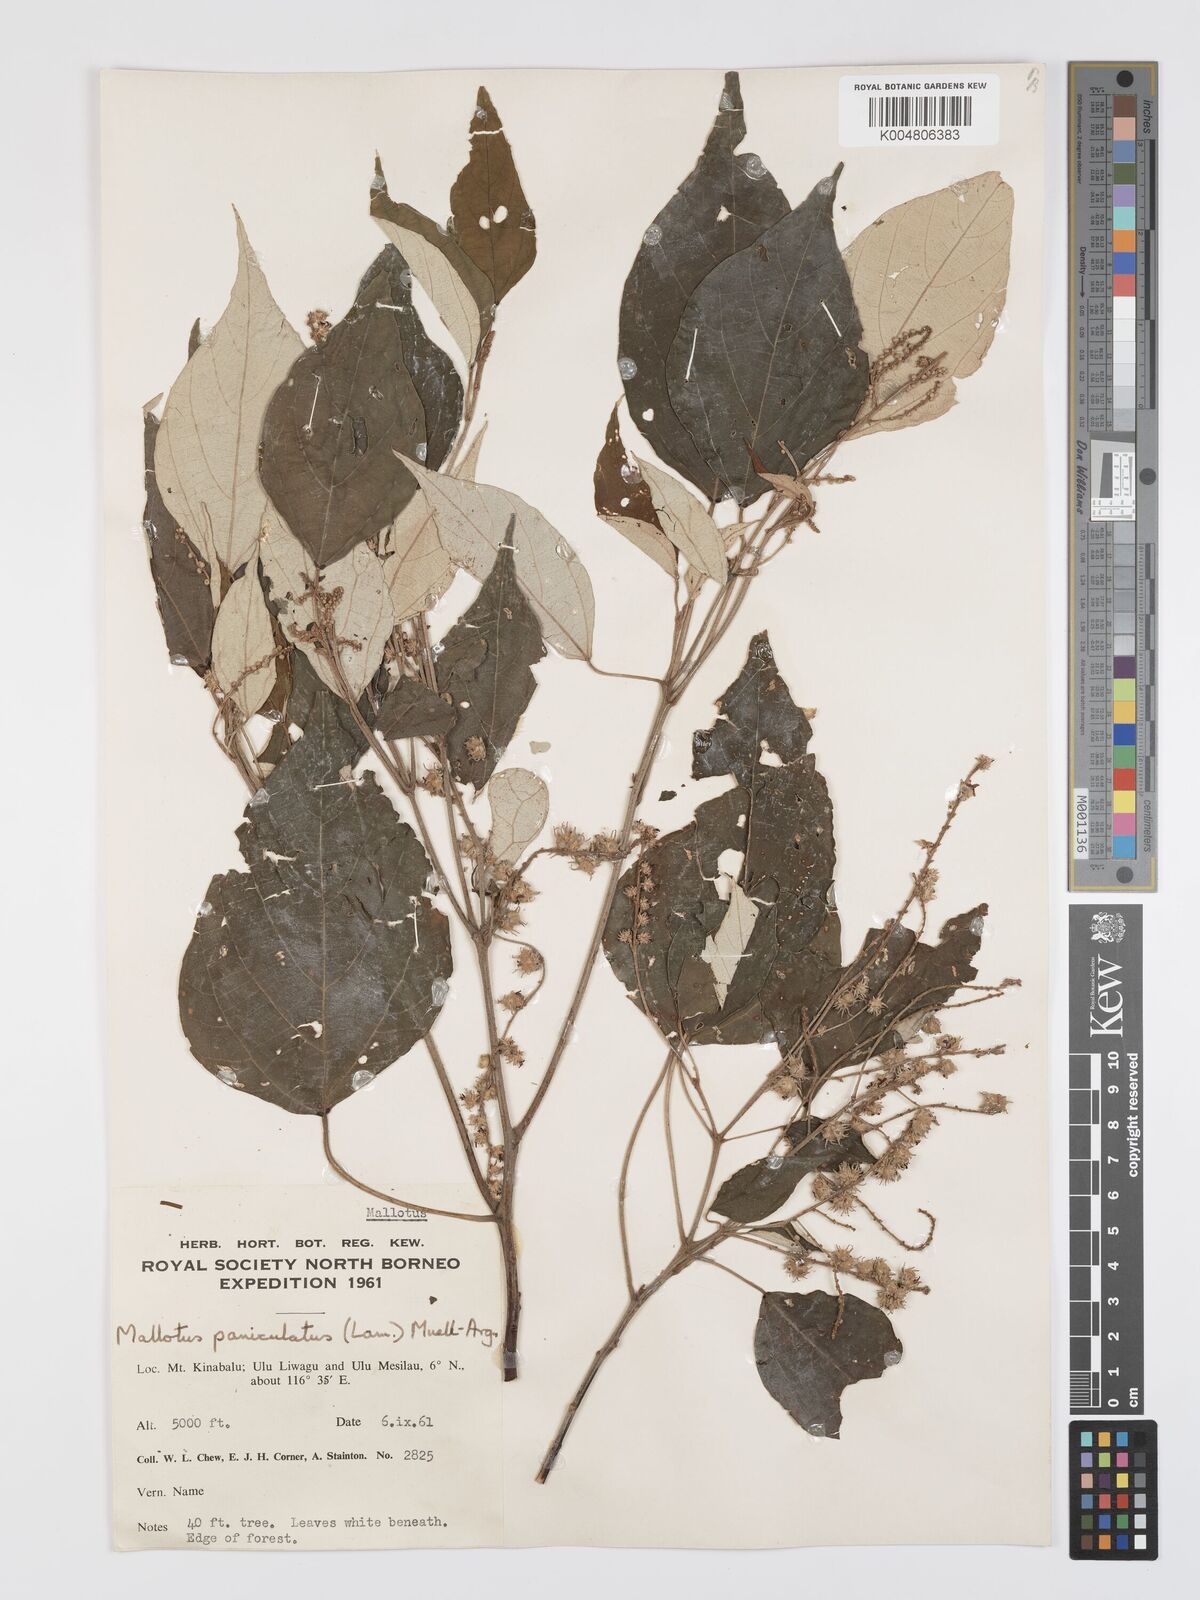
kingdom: Plantae
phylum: Tracheophyta
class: Magnoliopsida
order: Malpighiales
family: Euphorbiaceae
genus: Mallotus
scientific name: Mallotus paniculatus
